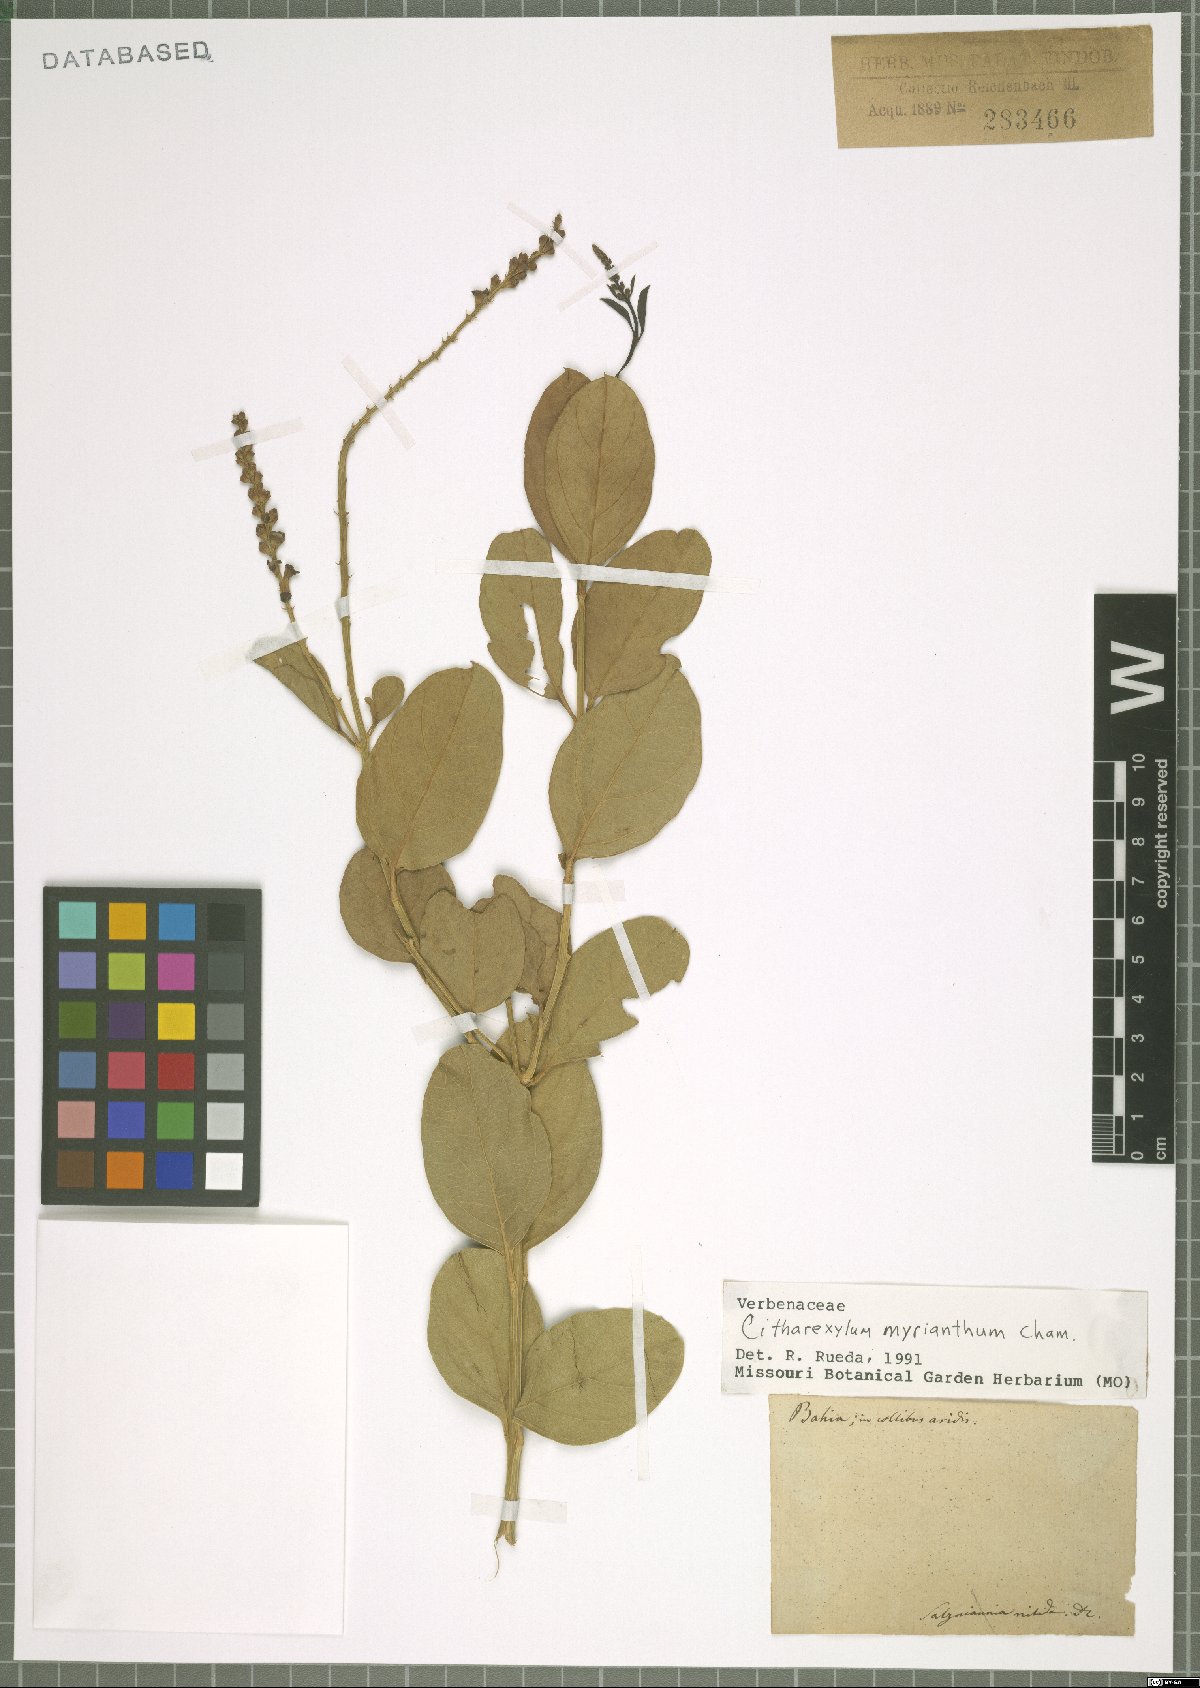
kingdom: Plantae
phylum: Tracheophyta
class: Magnoliopsida
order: Lamiales
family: Verbenaceae
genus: Citharexylum
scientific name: Citharexylum myrianthum
